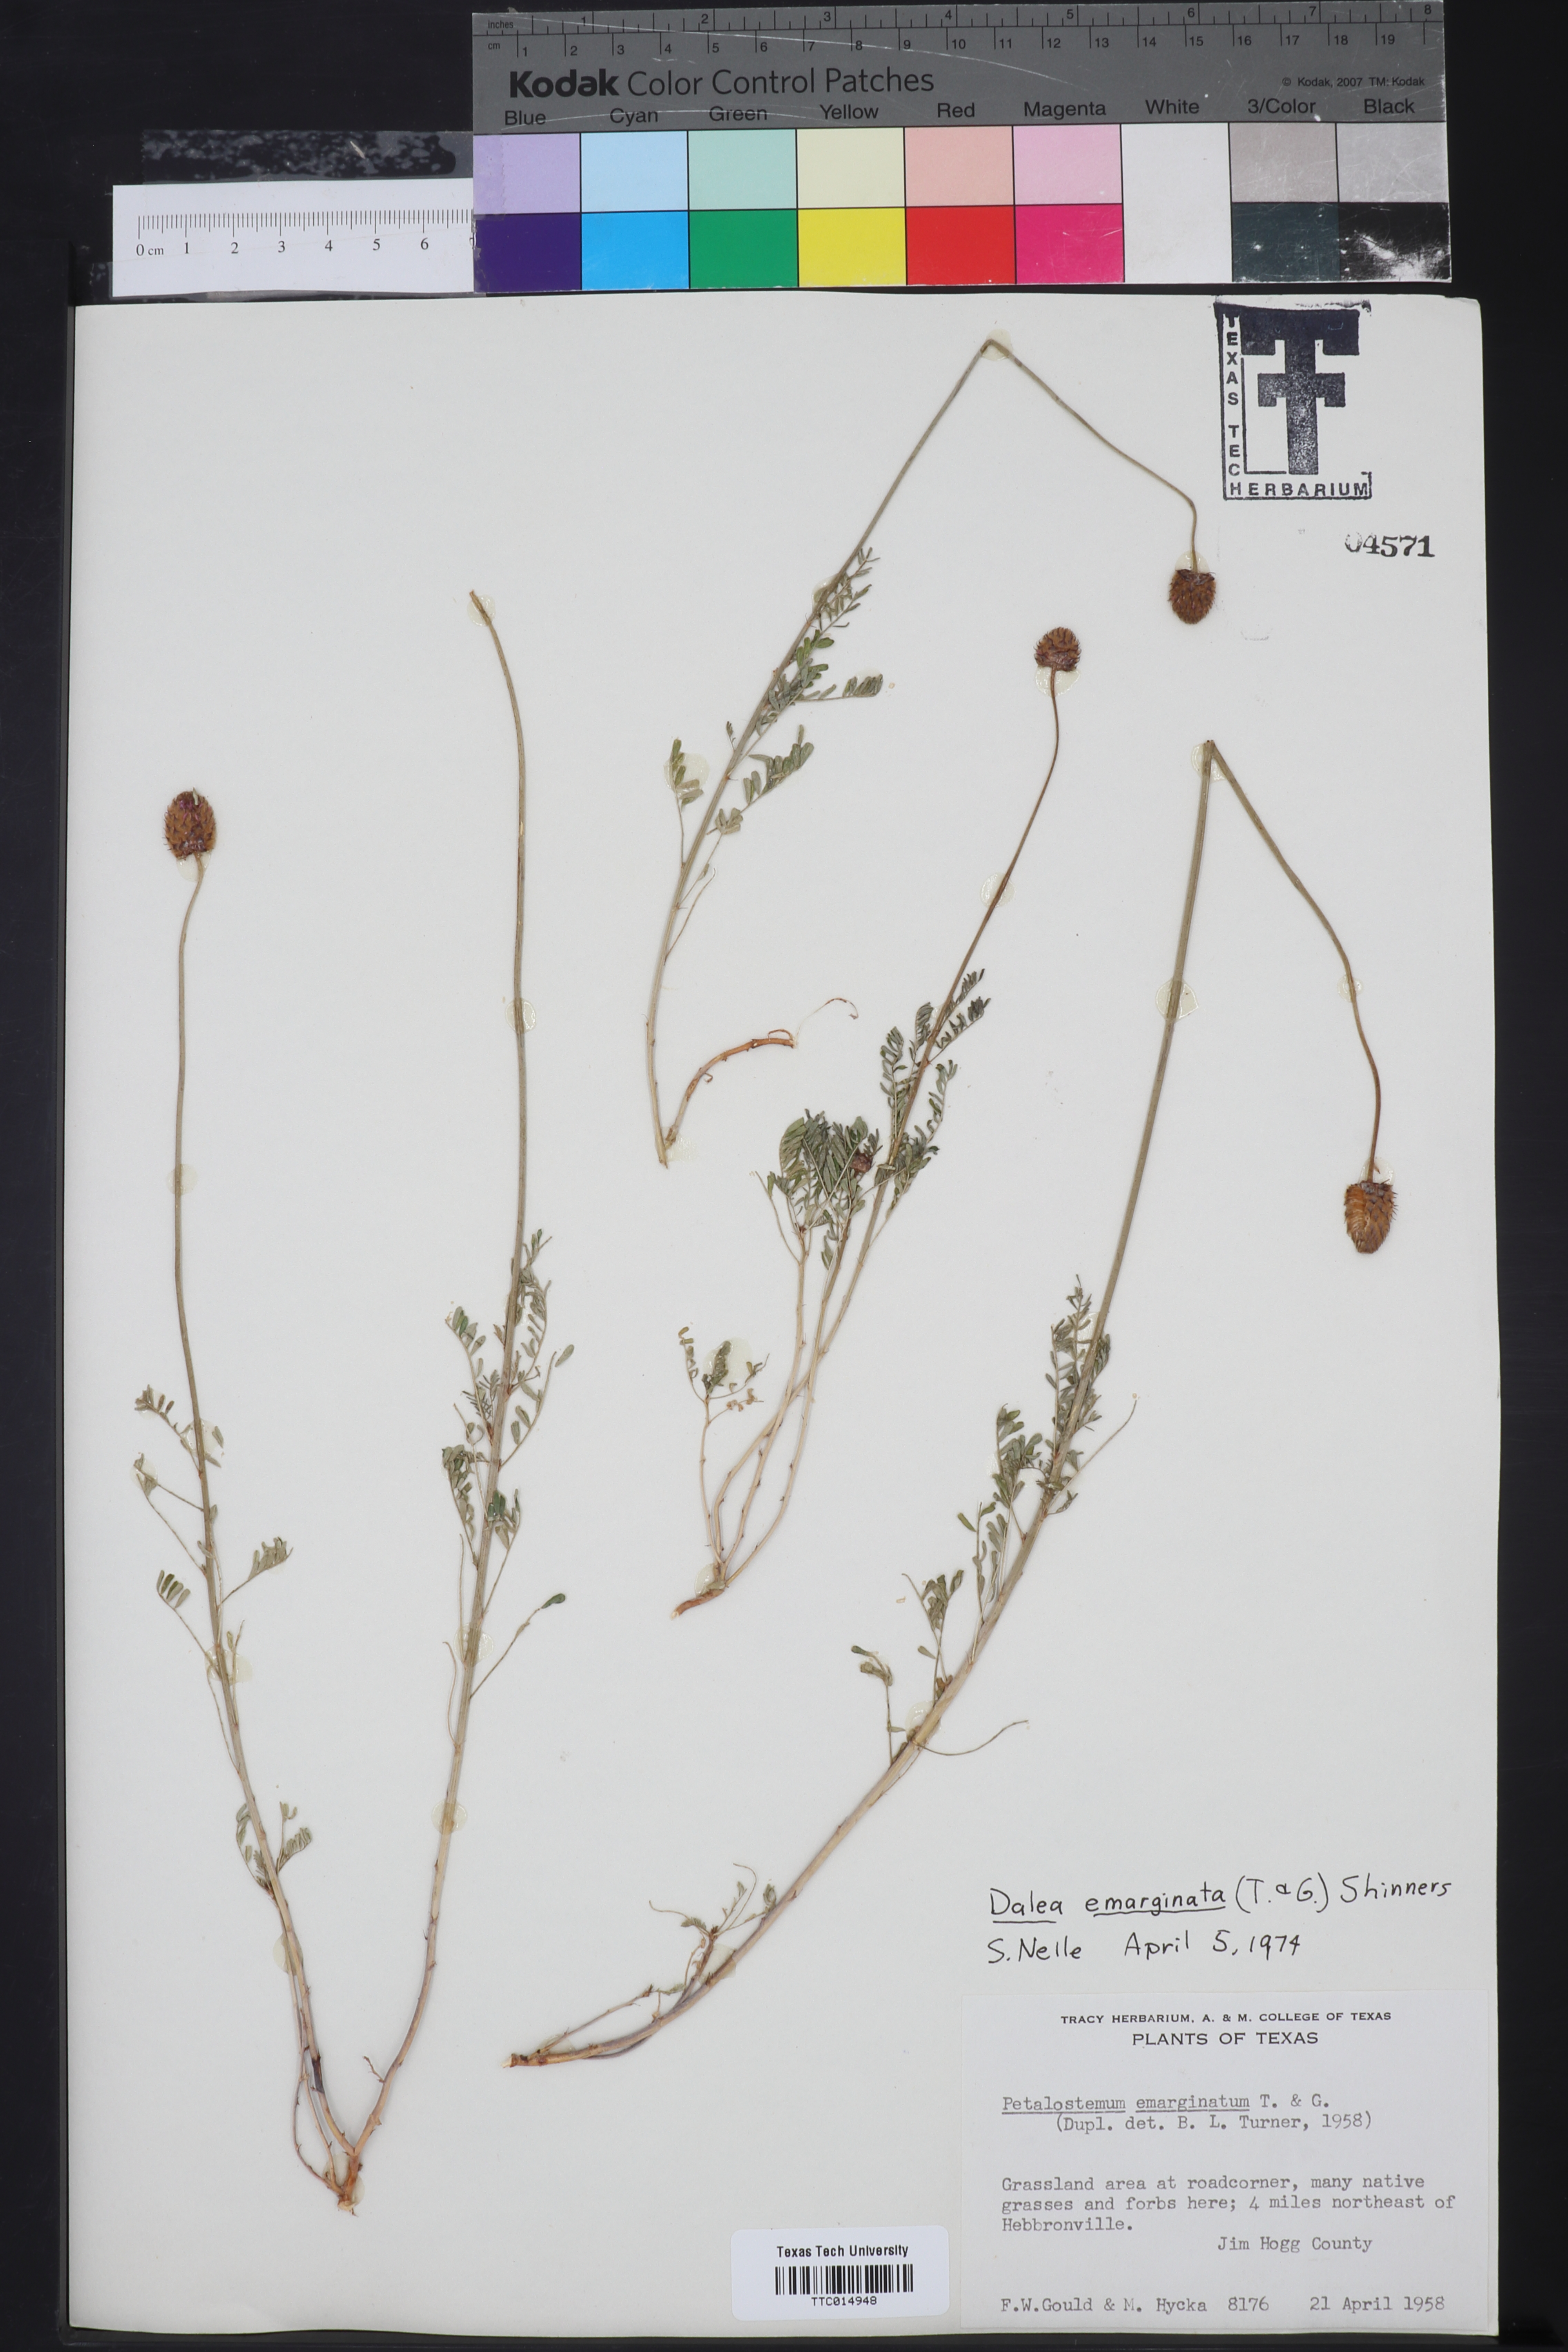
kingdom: Plantae
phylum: Tracheophyta
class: Magnoliopsida
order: Fabales
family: Fabaceae
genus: Dalea
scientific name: Dalea emarginata
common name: Wedgeleaf prairie clover
